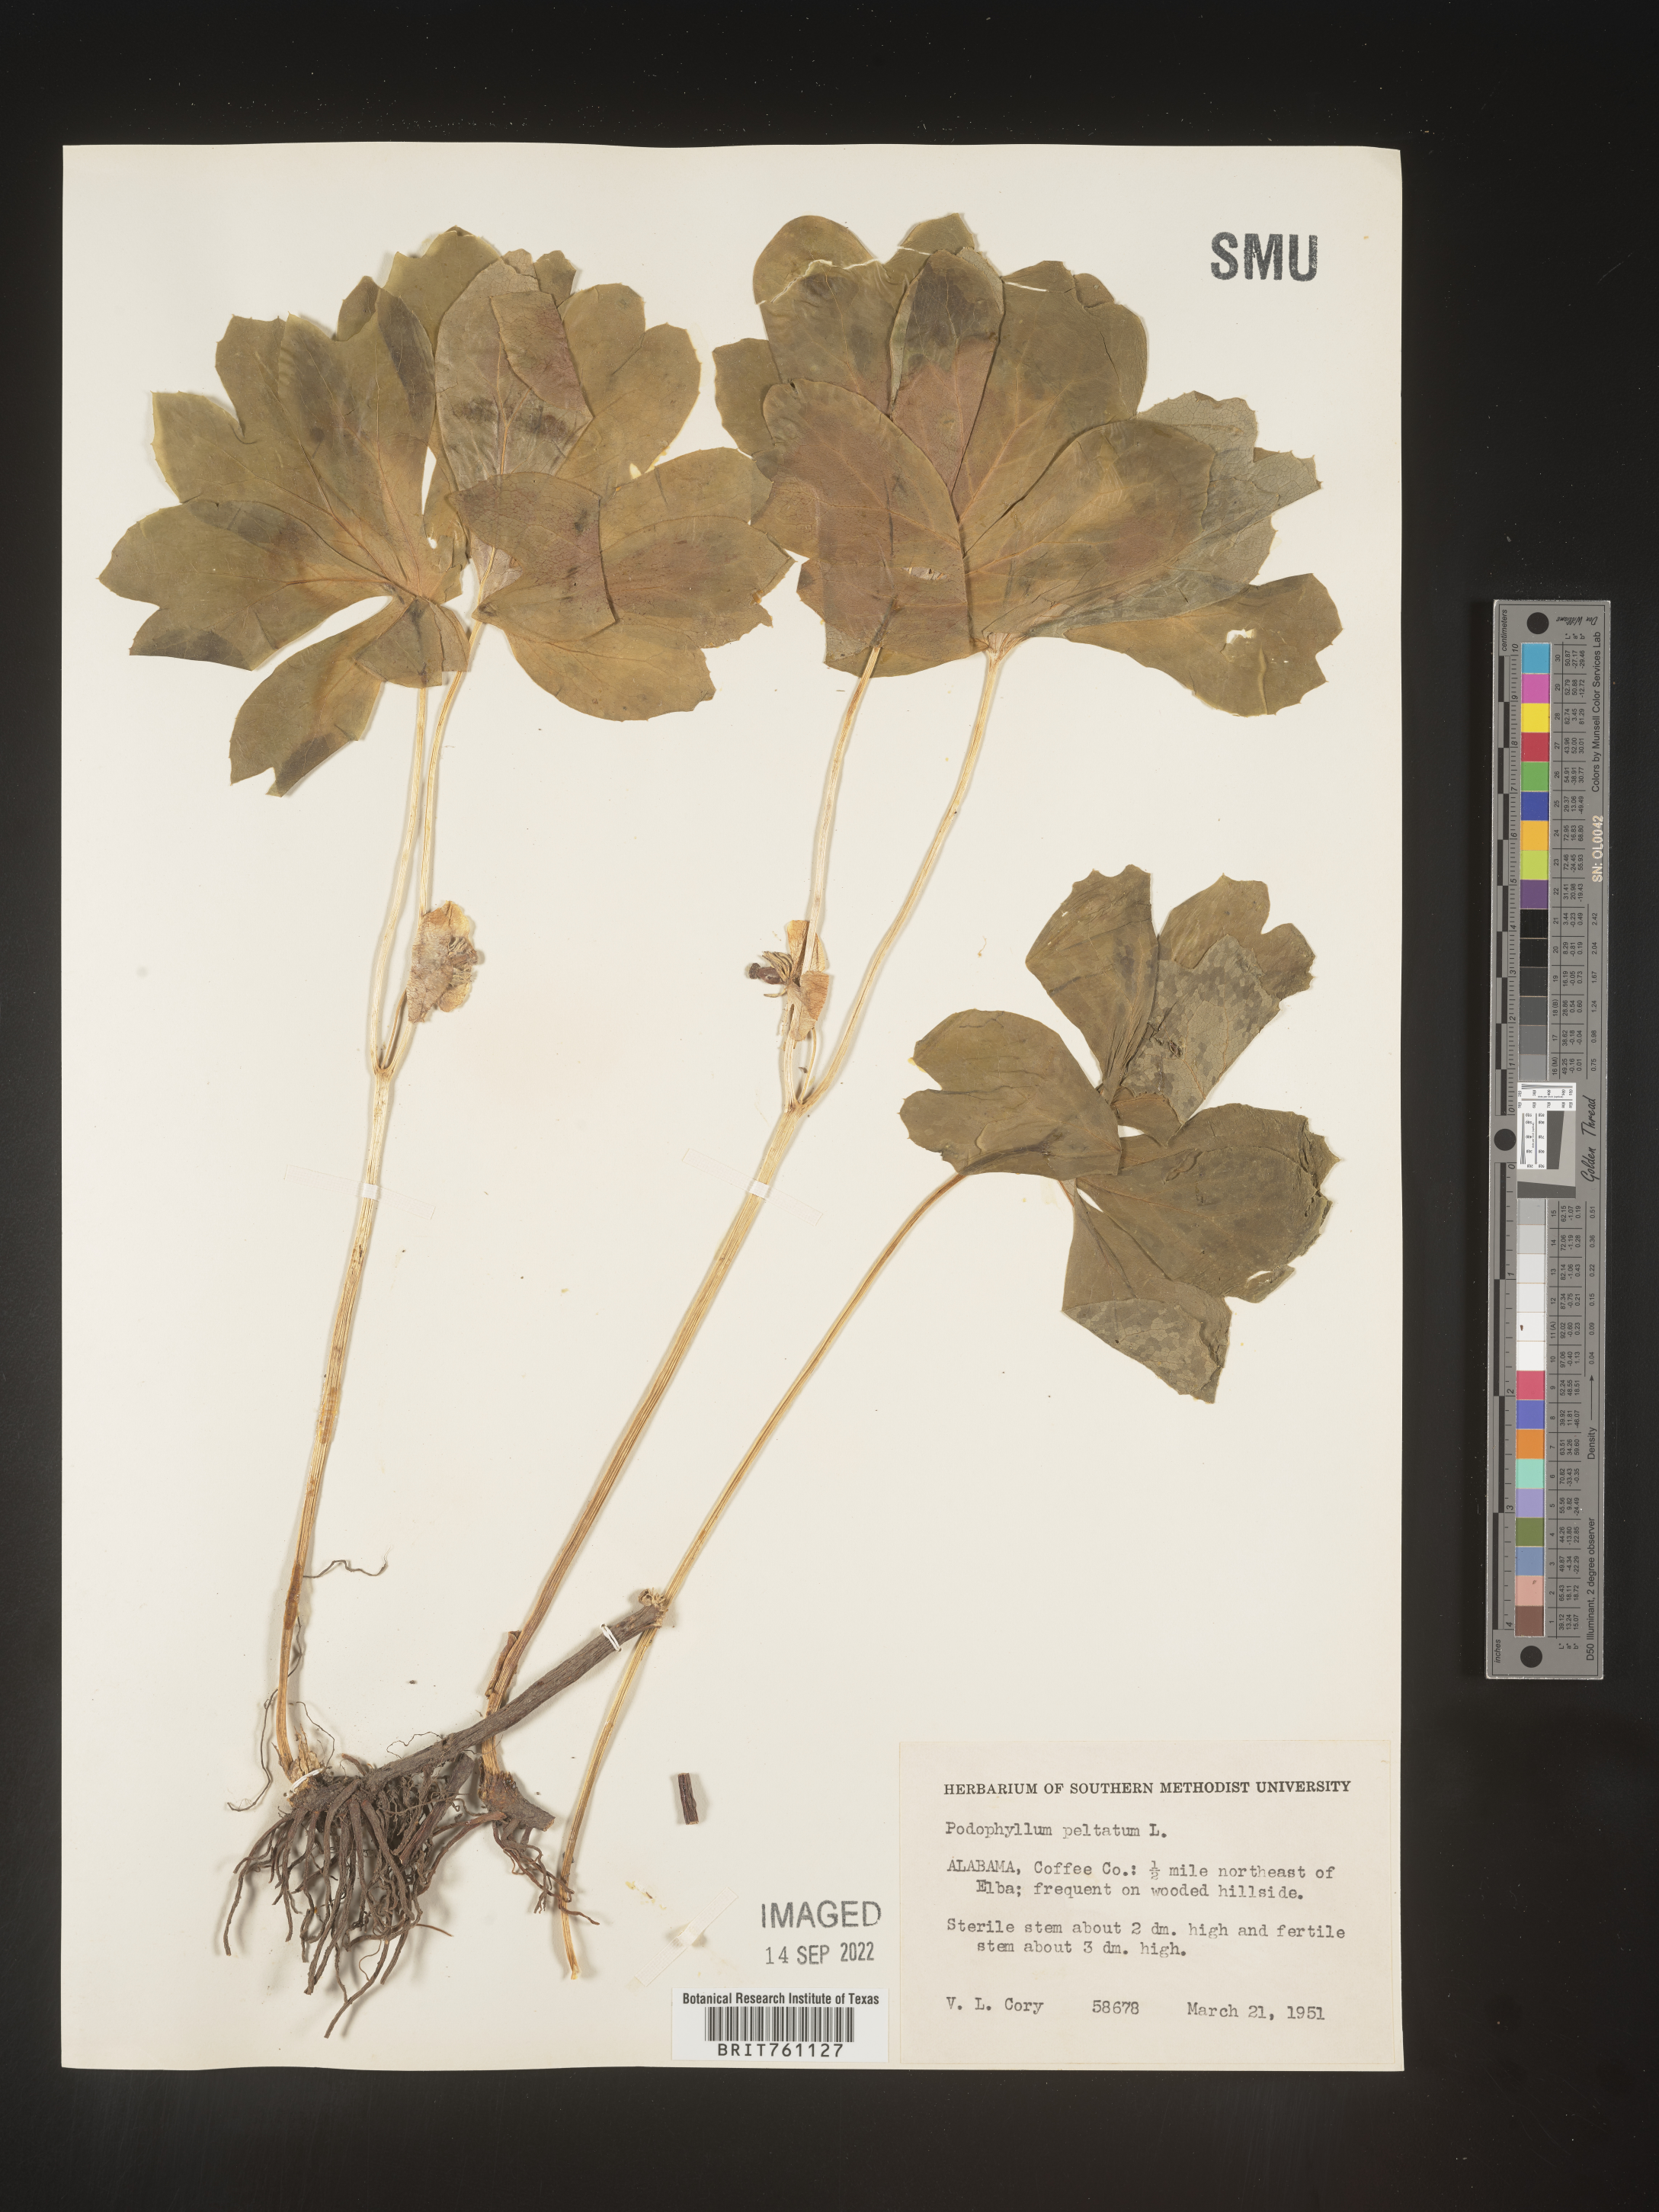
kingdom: Plantae
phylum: Tracheophyta
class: Magnoliopsida
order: Ranunculales
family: Berberidaceae
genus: Podophyllum
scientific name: Podophyllum peltatum
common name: Wild mandrake
